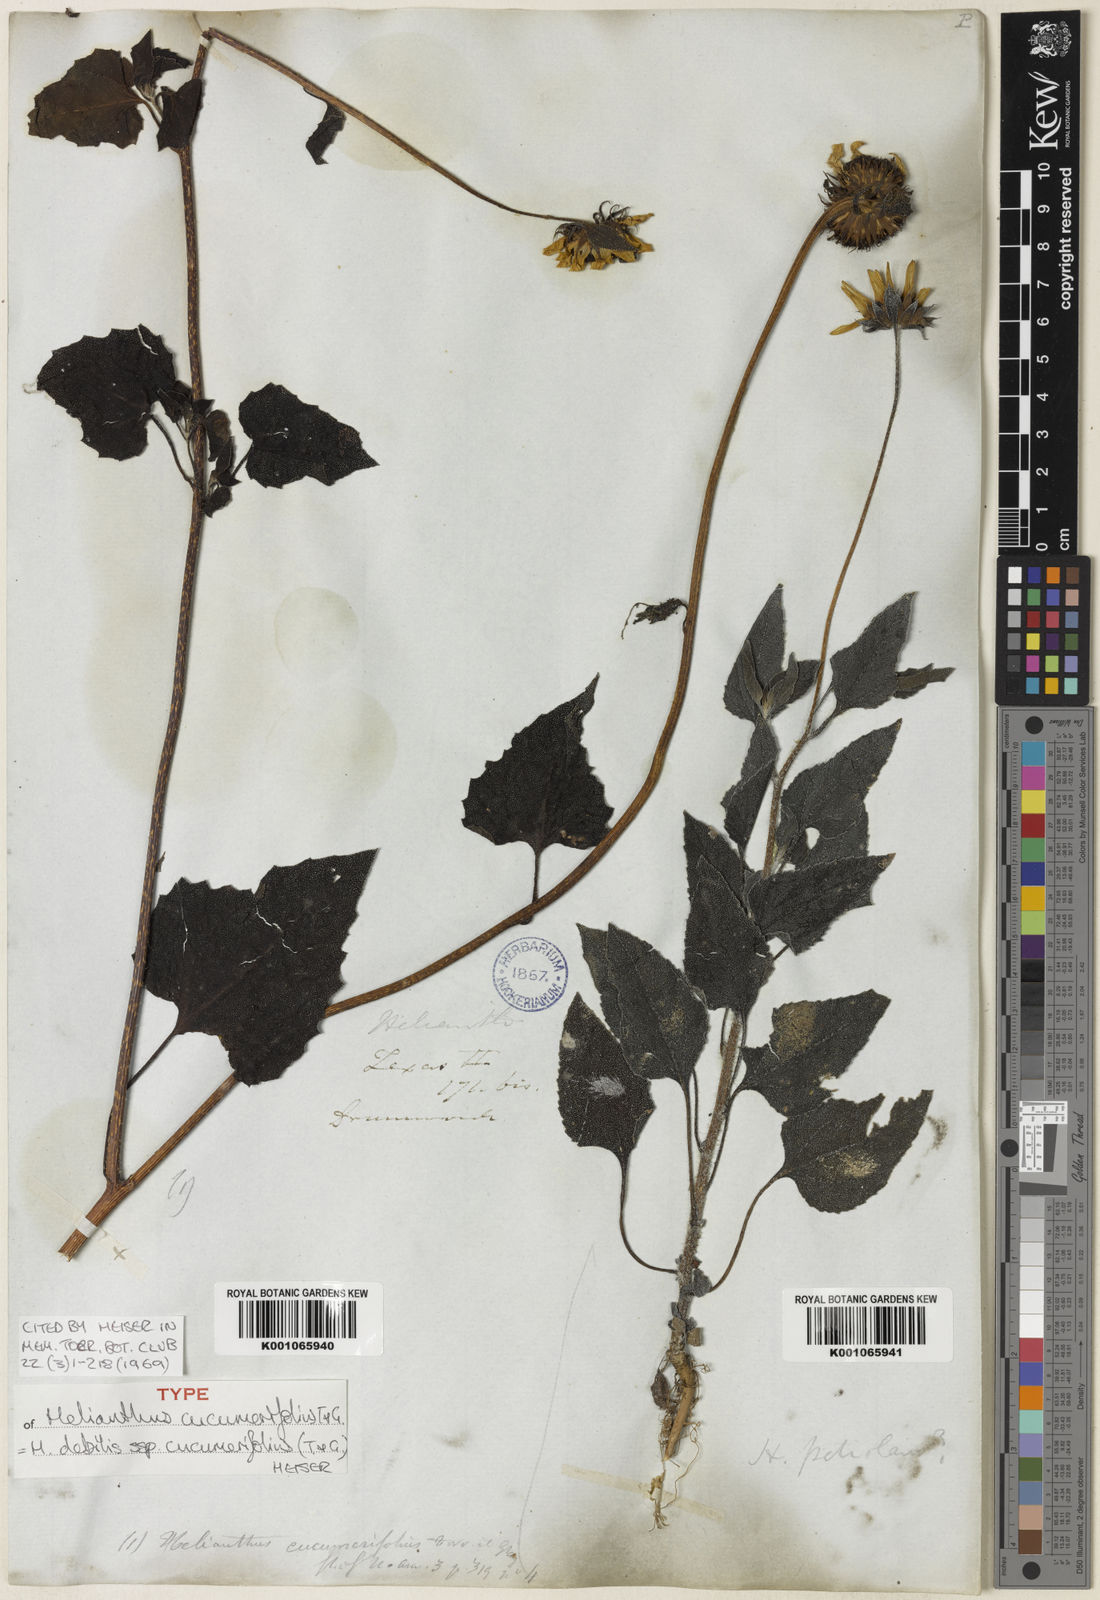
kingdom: Plantae
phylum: Tracheophyta
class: Magnoliopsida
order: Asterales
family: Asteraceae
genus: Helianthus
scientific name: Helianthus debilis
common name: Weak sunflower
